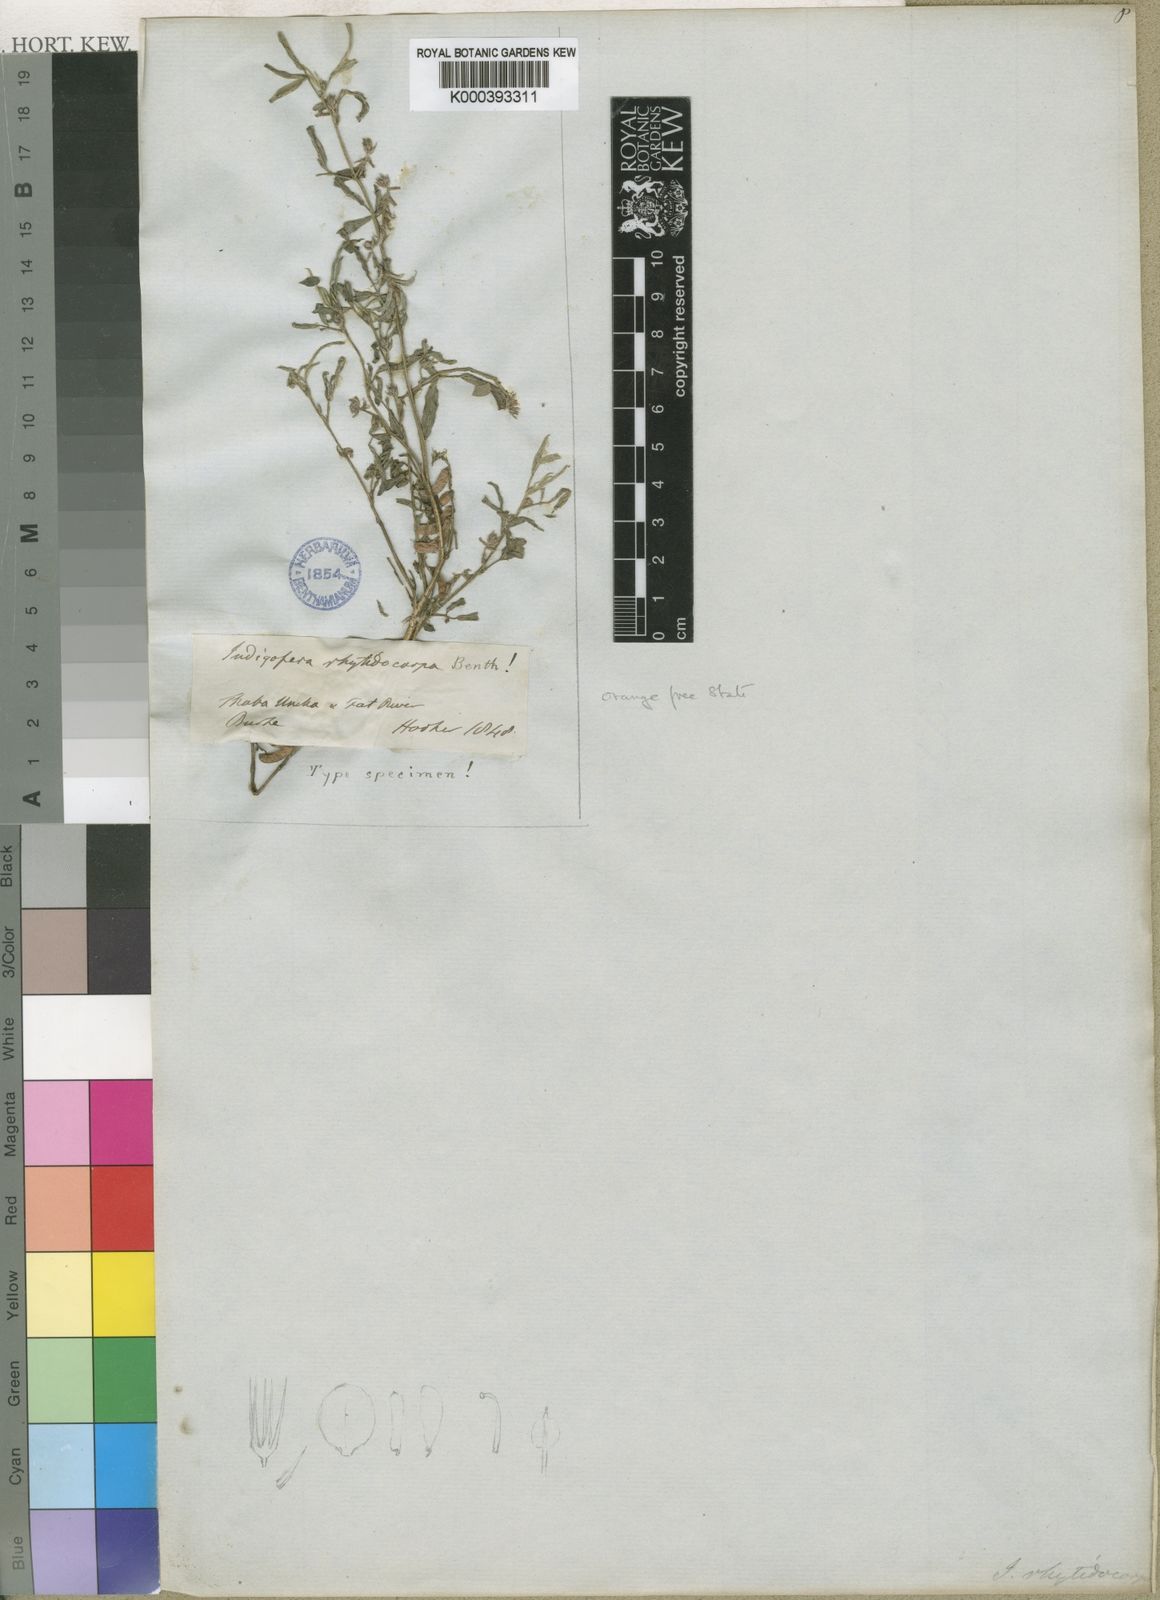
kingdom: Plantae
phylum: Tracheophyta
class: Magnoliopsida
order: Fabales
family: Fabaceae
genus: Indigofera
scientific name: Indigofera rhytidocarpa
